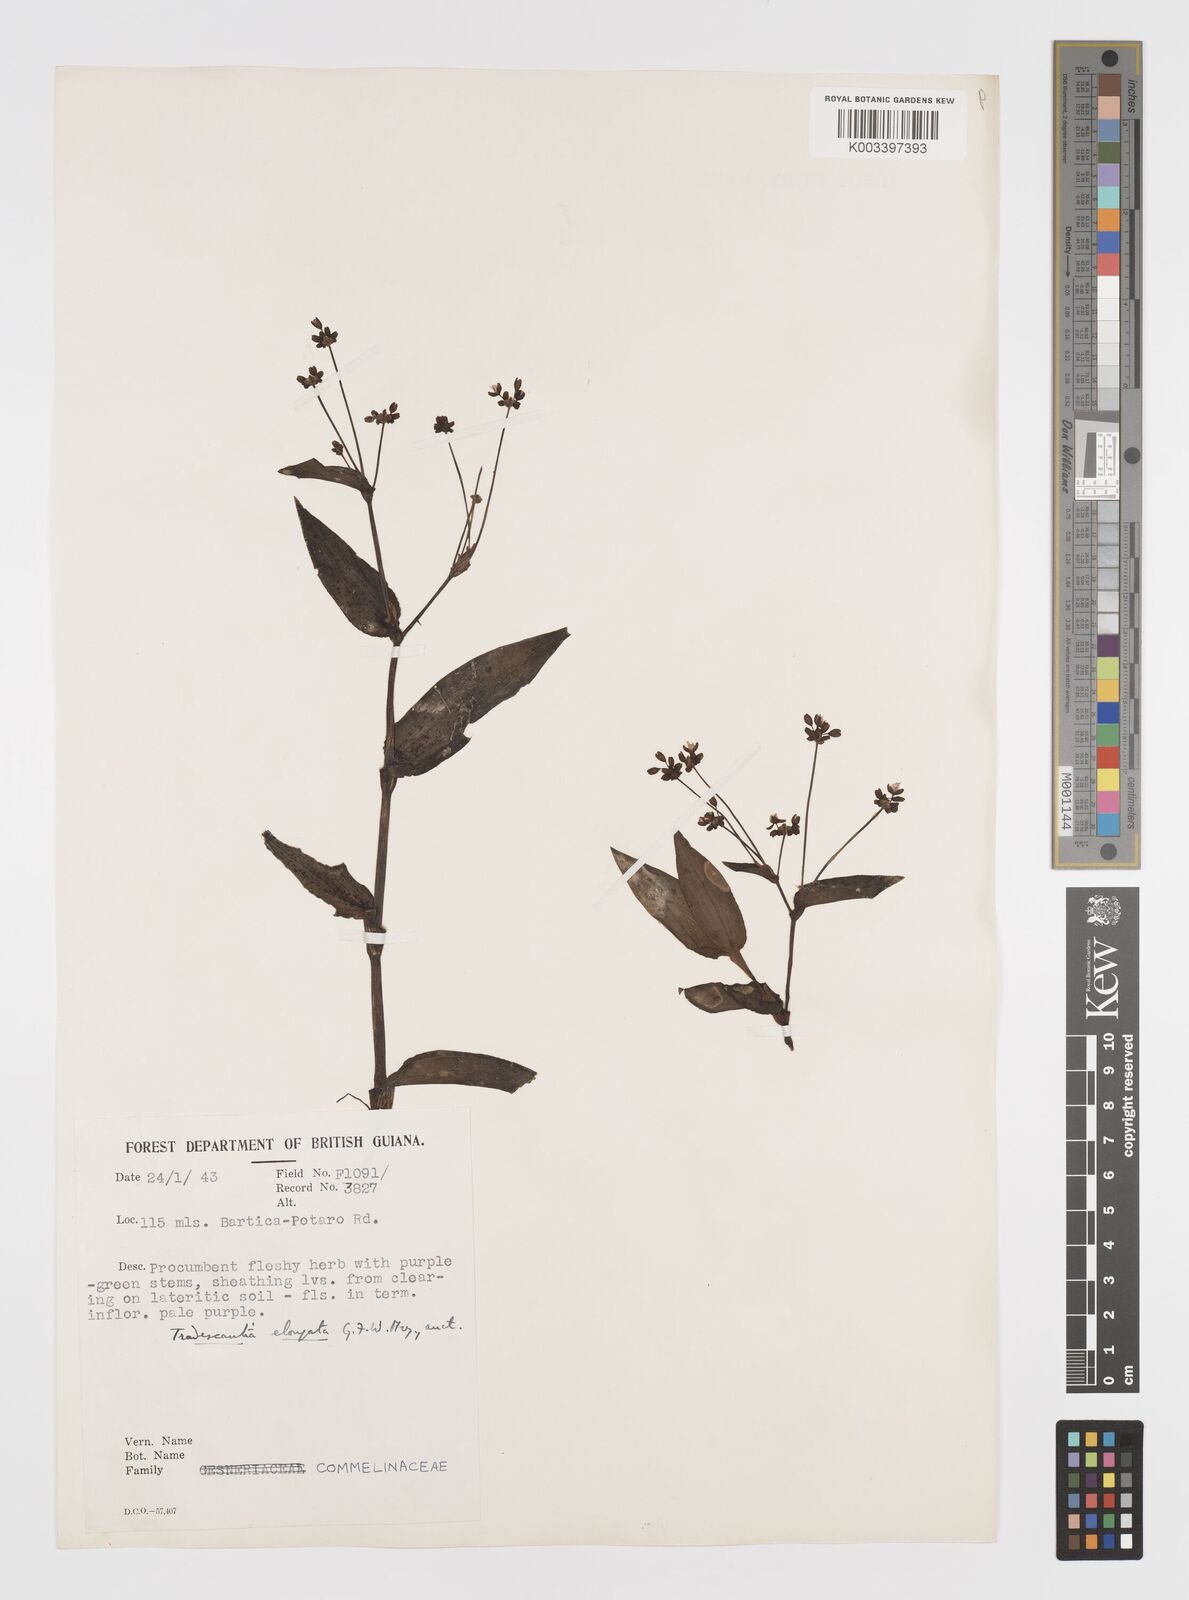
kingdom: Plantae
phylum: Tracheophyta
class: Liliopsida
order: Commelinales
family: Commelinaceae
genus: Callisia
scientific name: Callisia serrulata
